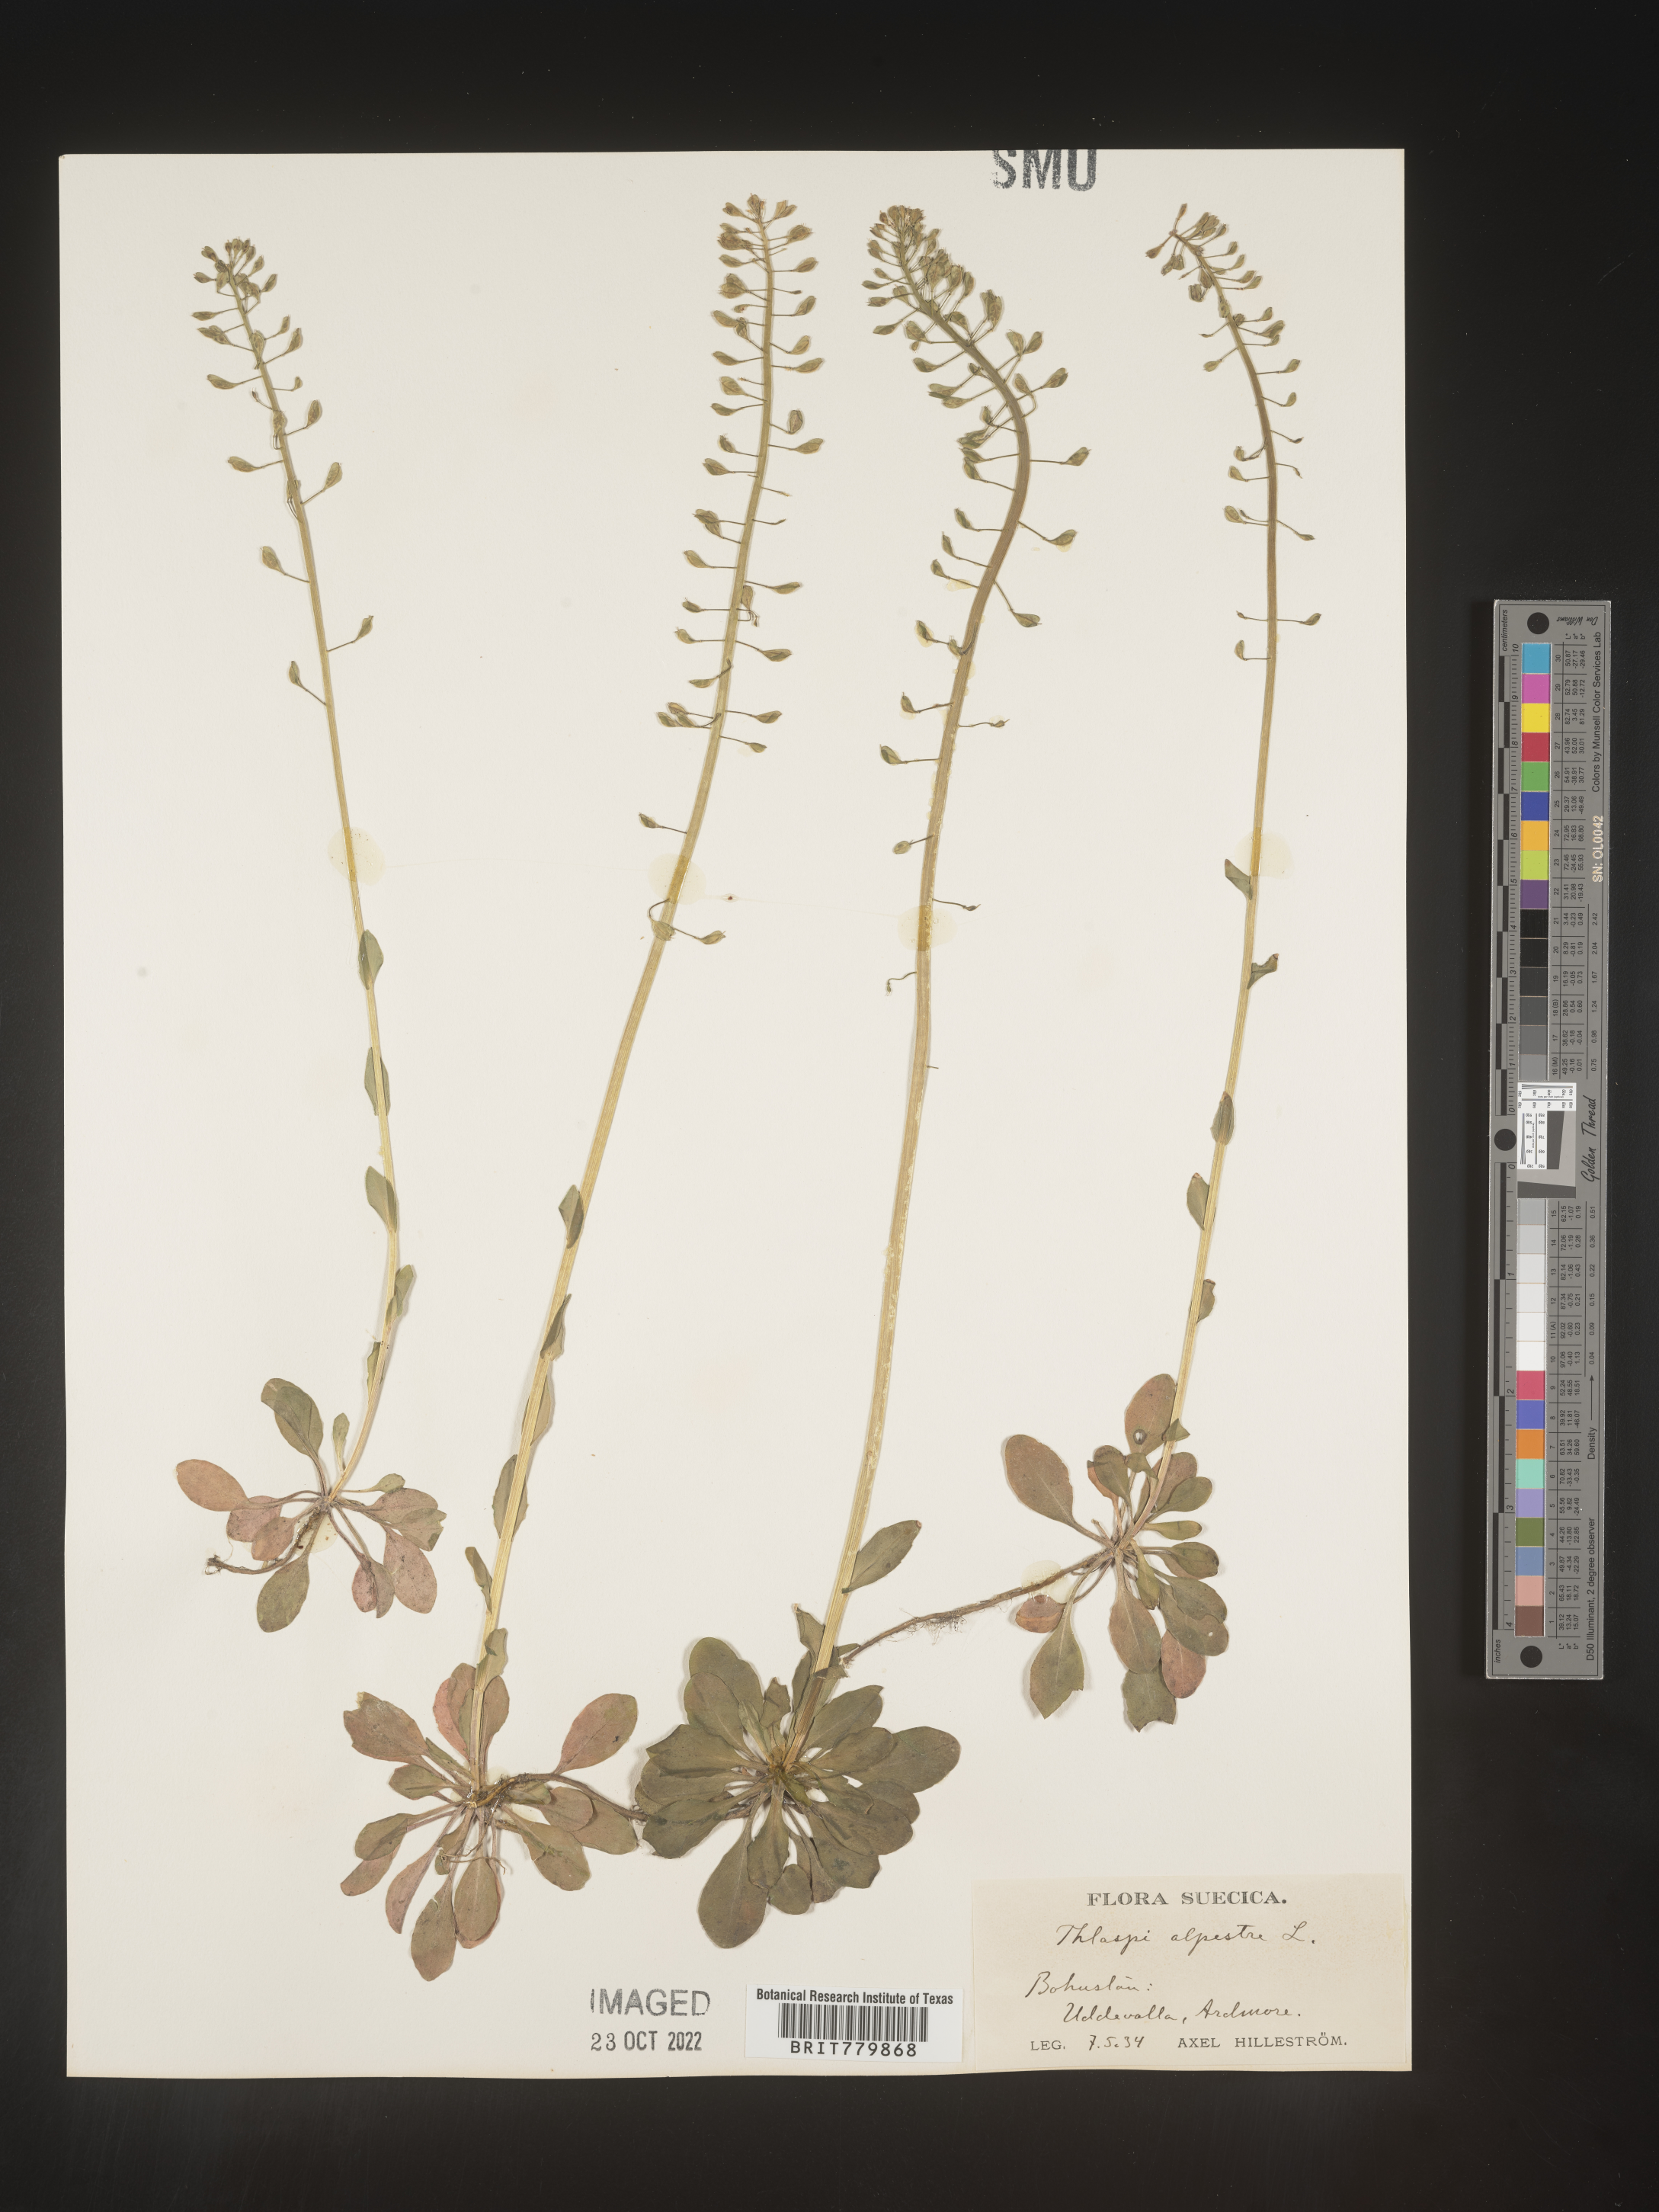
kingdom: Plantae
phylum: Tracheophyta
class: Magnoliopsida
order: Brassicales
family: Brassicaceae
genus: Thlaspi
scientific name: Thlaspi
